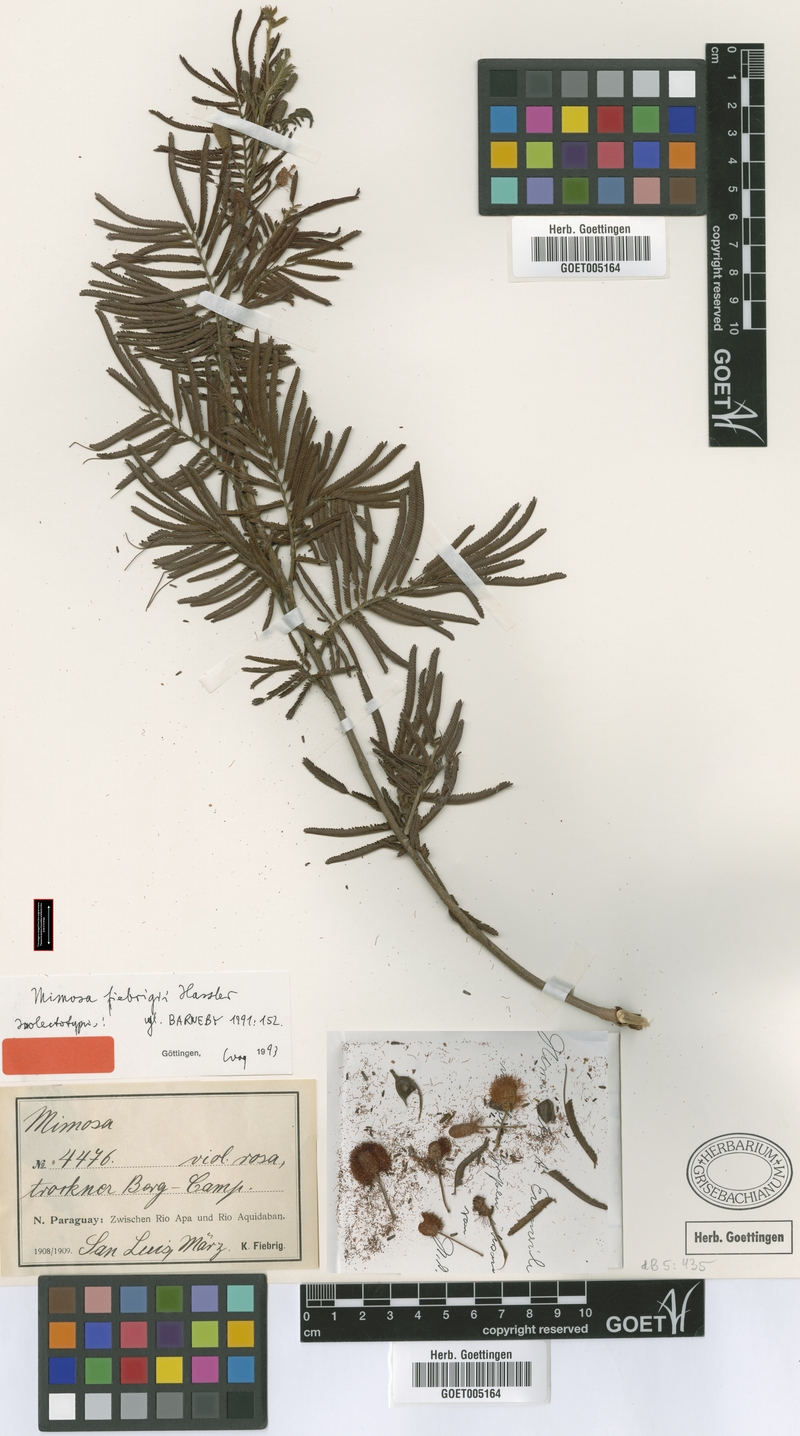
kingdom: Plantae
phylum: Tracheophyta
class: Magnoliopsida
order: Fabales
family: Fabaceae
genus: Mimosa
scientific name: Mimosa fiebrigii
